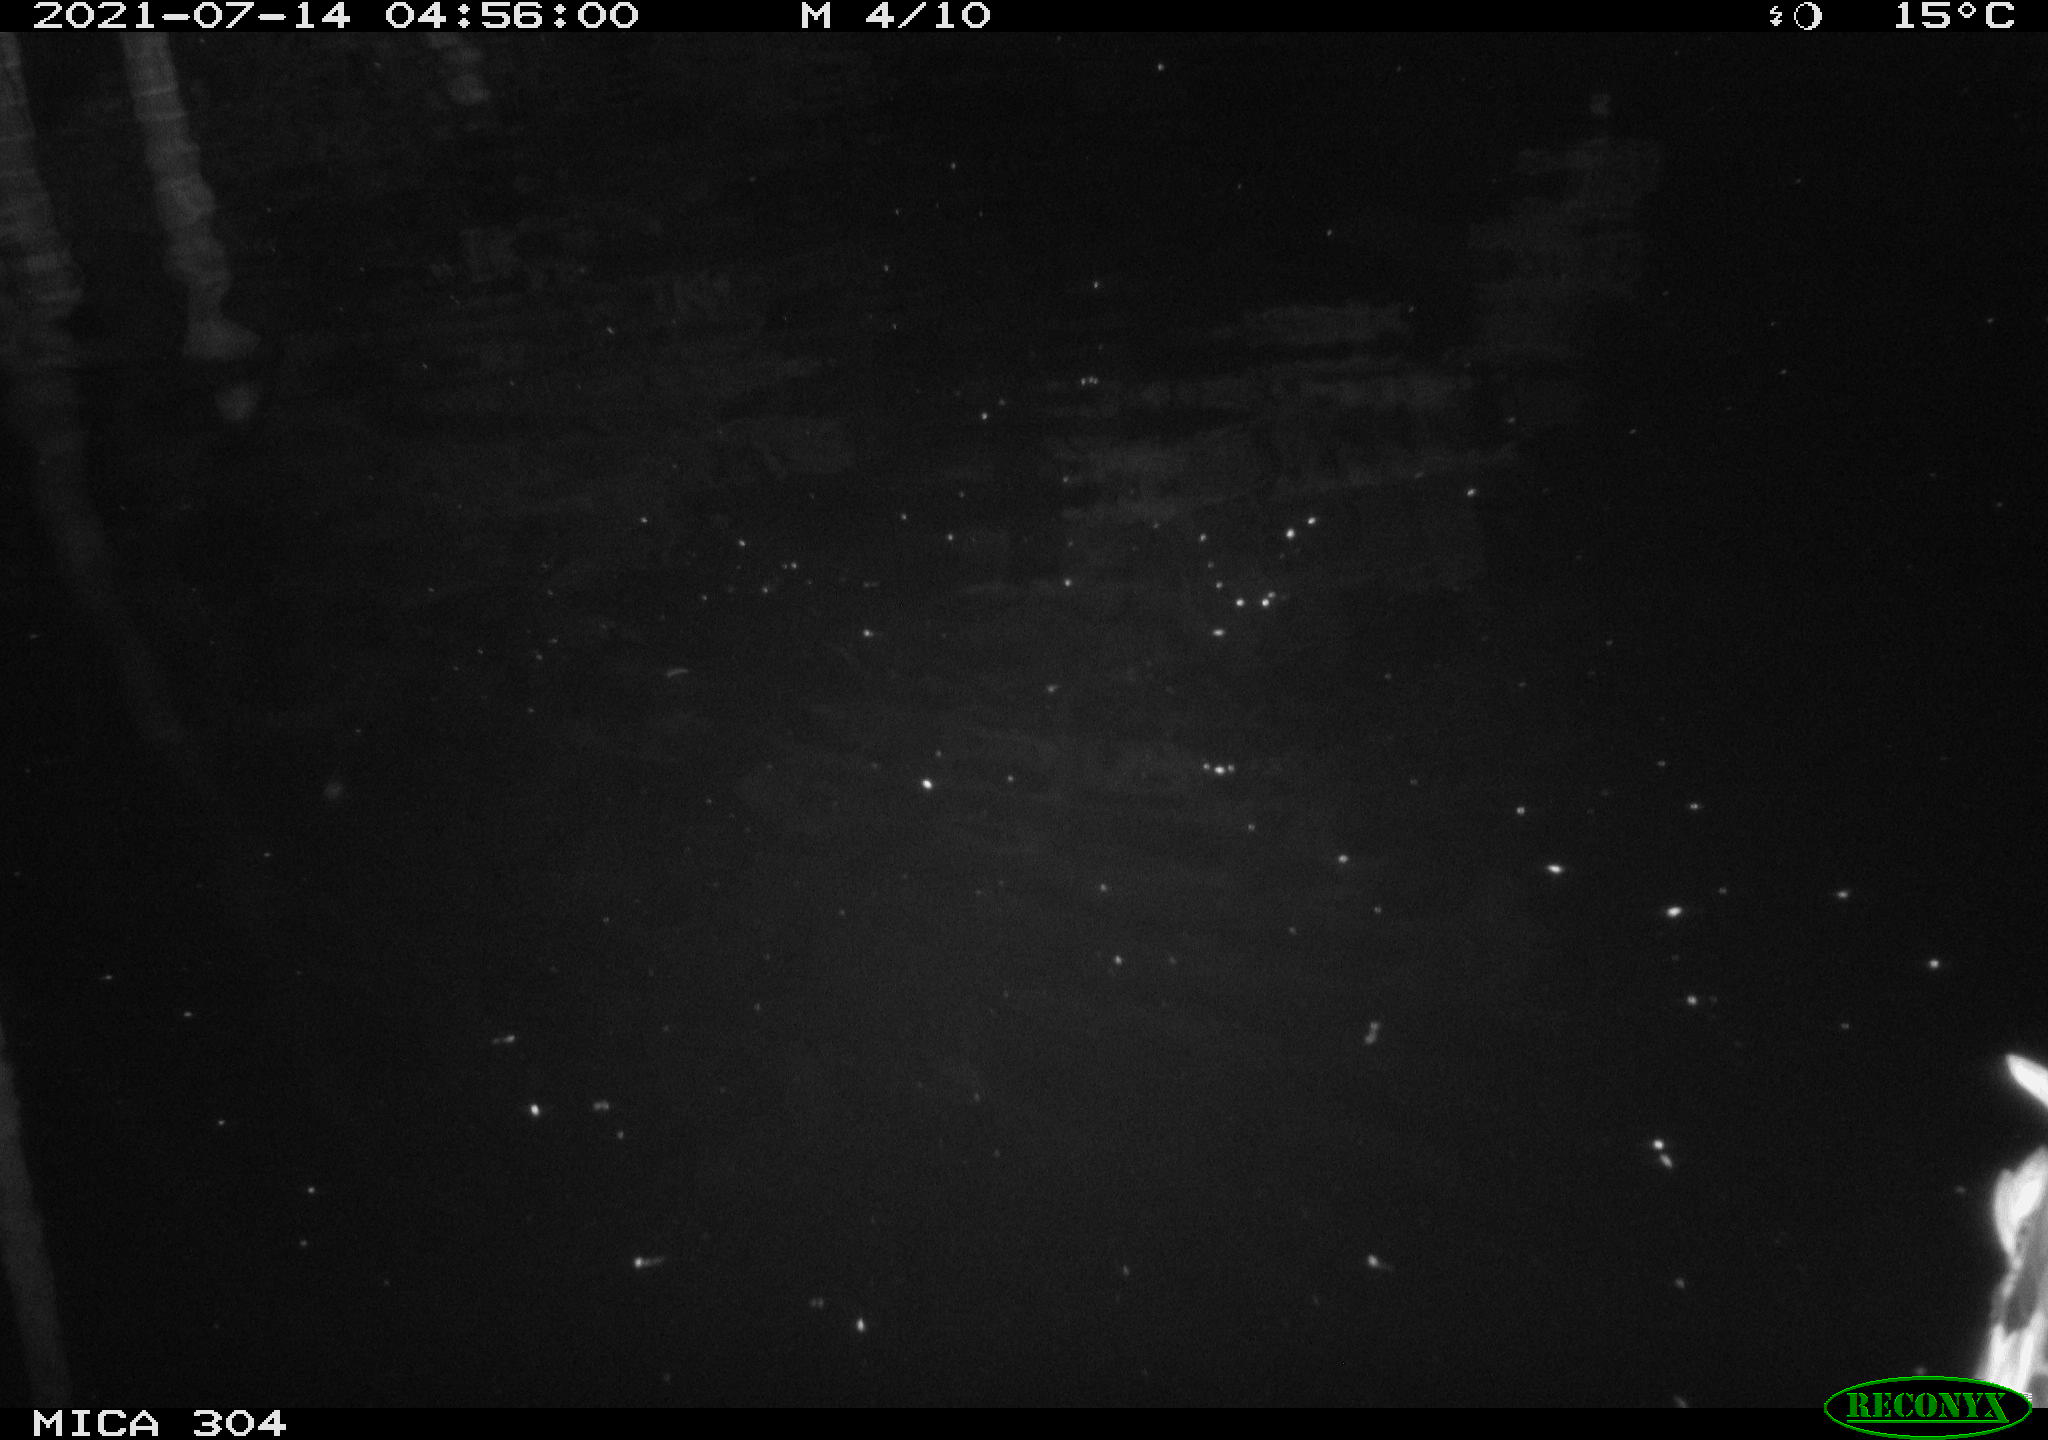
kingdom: Animalia
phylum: Chordata
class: Aves
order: Anseriformes
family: Anatidae
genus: Anas
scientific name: Anas platyrhynchos
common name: Mallard
